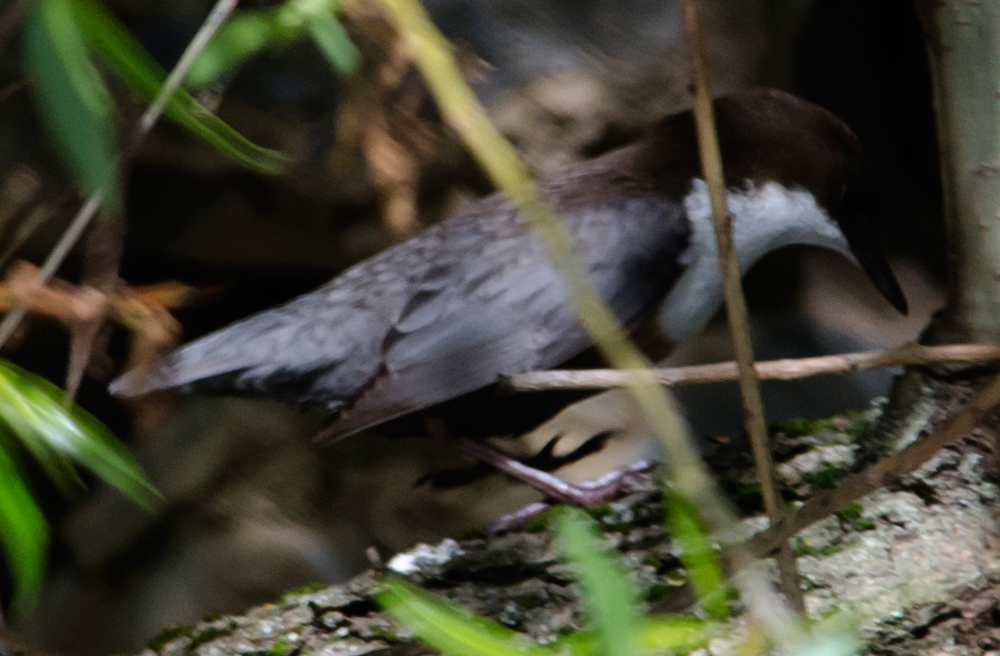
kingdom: Animalia
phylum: Chordata
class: Aves
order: Passeriformes
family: Cinclidae
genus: Cinclus
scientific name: Cinclus cinclus
